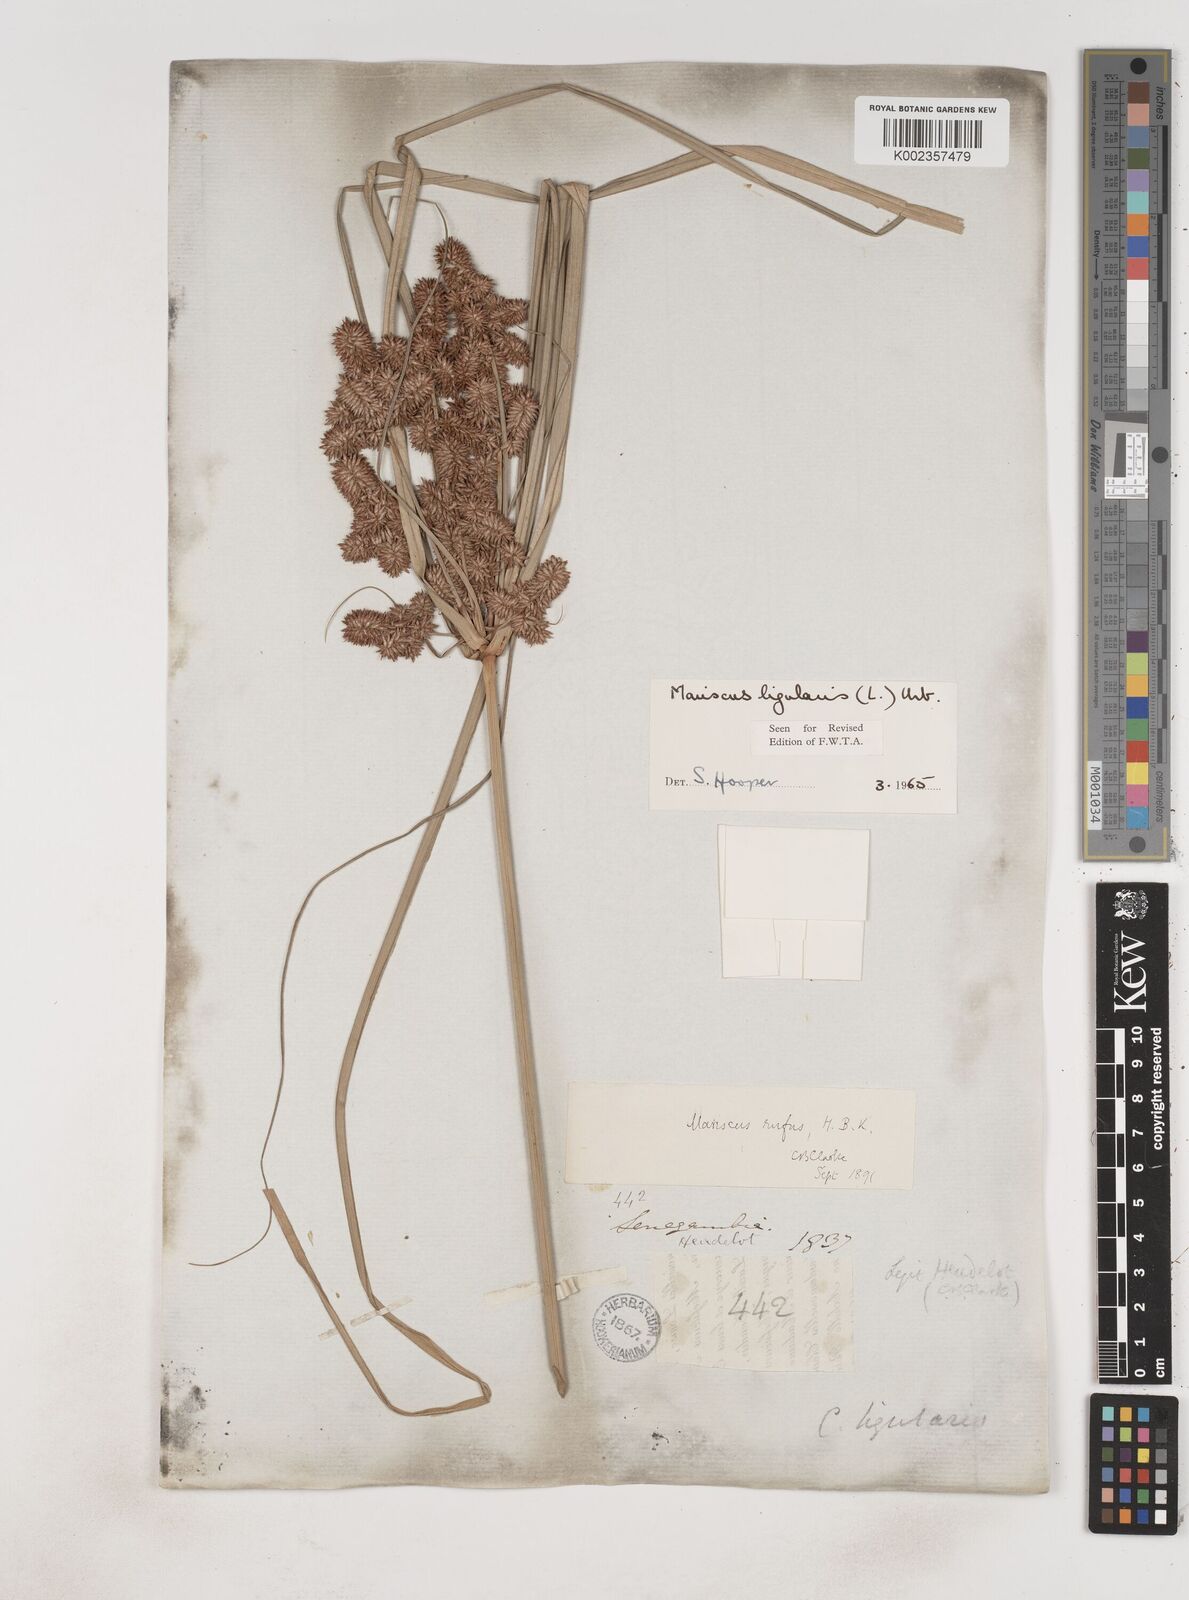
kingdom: Plantae
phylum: Tracheophyta
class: Liliopsida
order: Poales
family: Cyperaceae
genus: Cyperus
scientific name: Cyperus ligularis
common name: Swamp flat sedge
